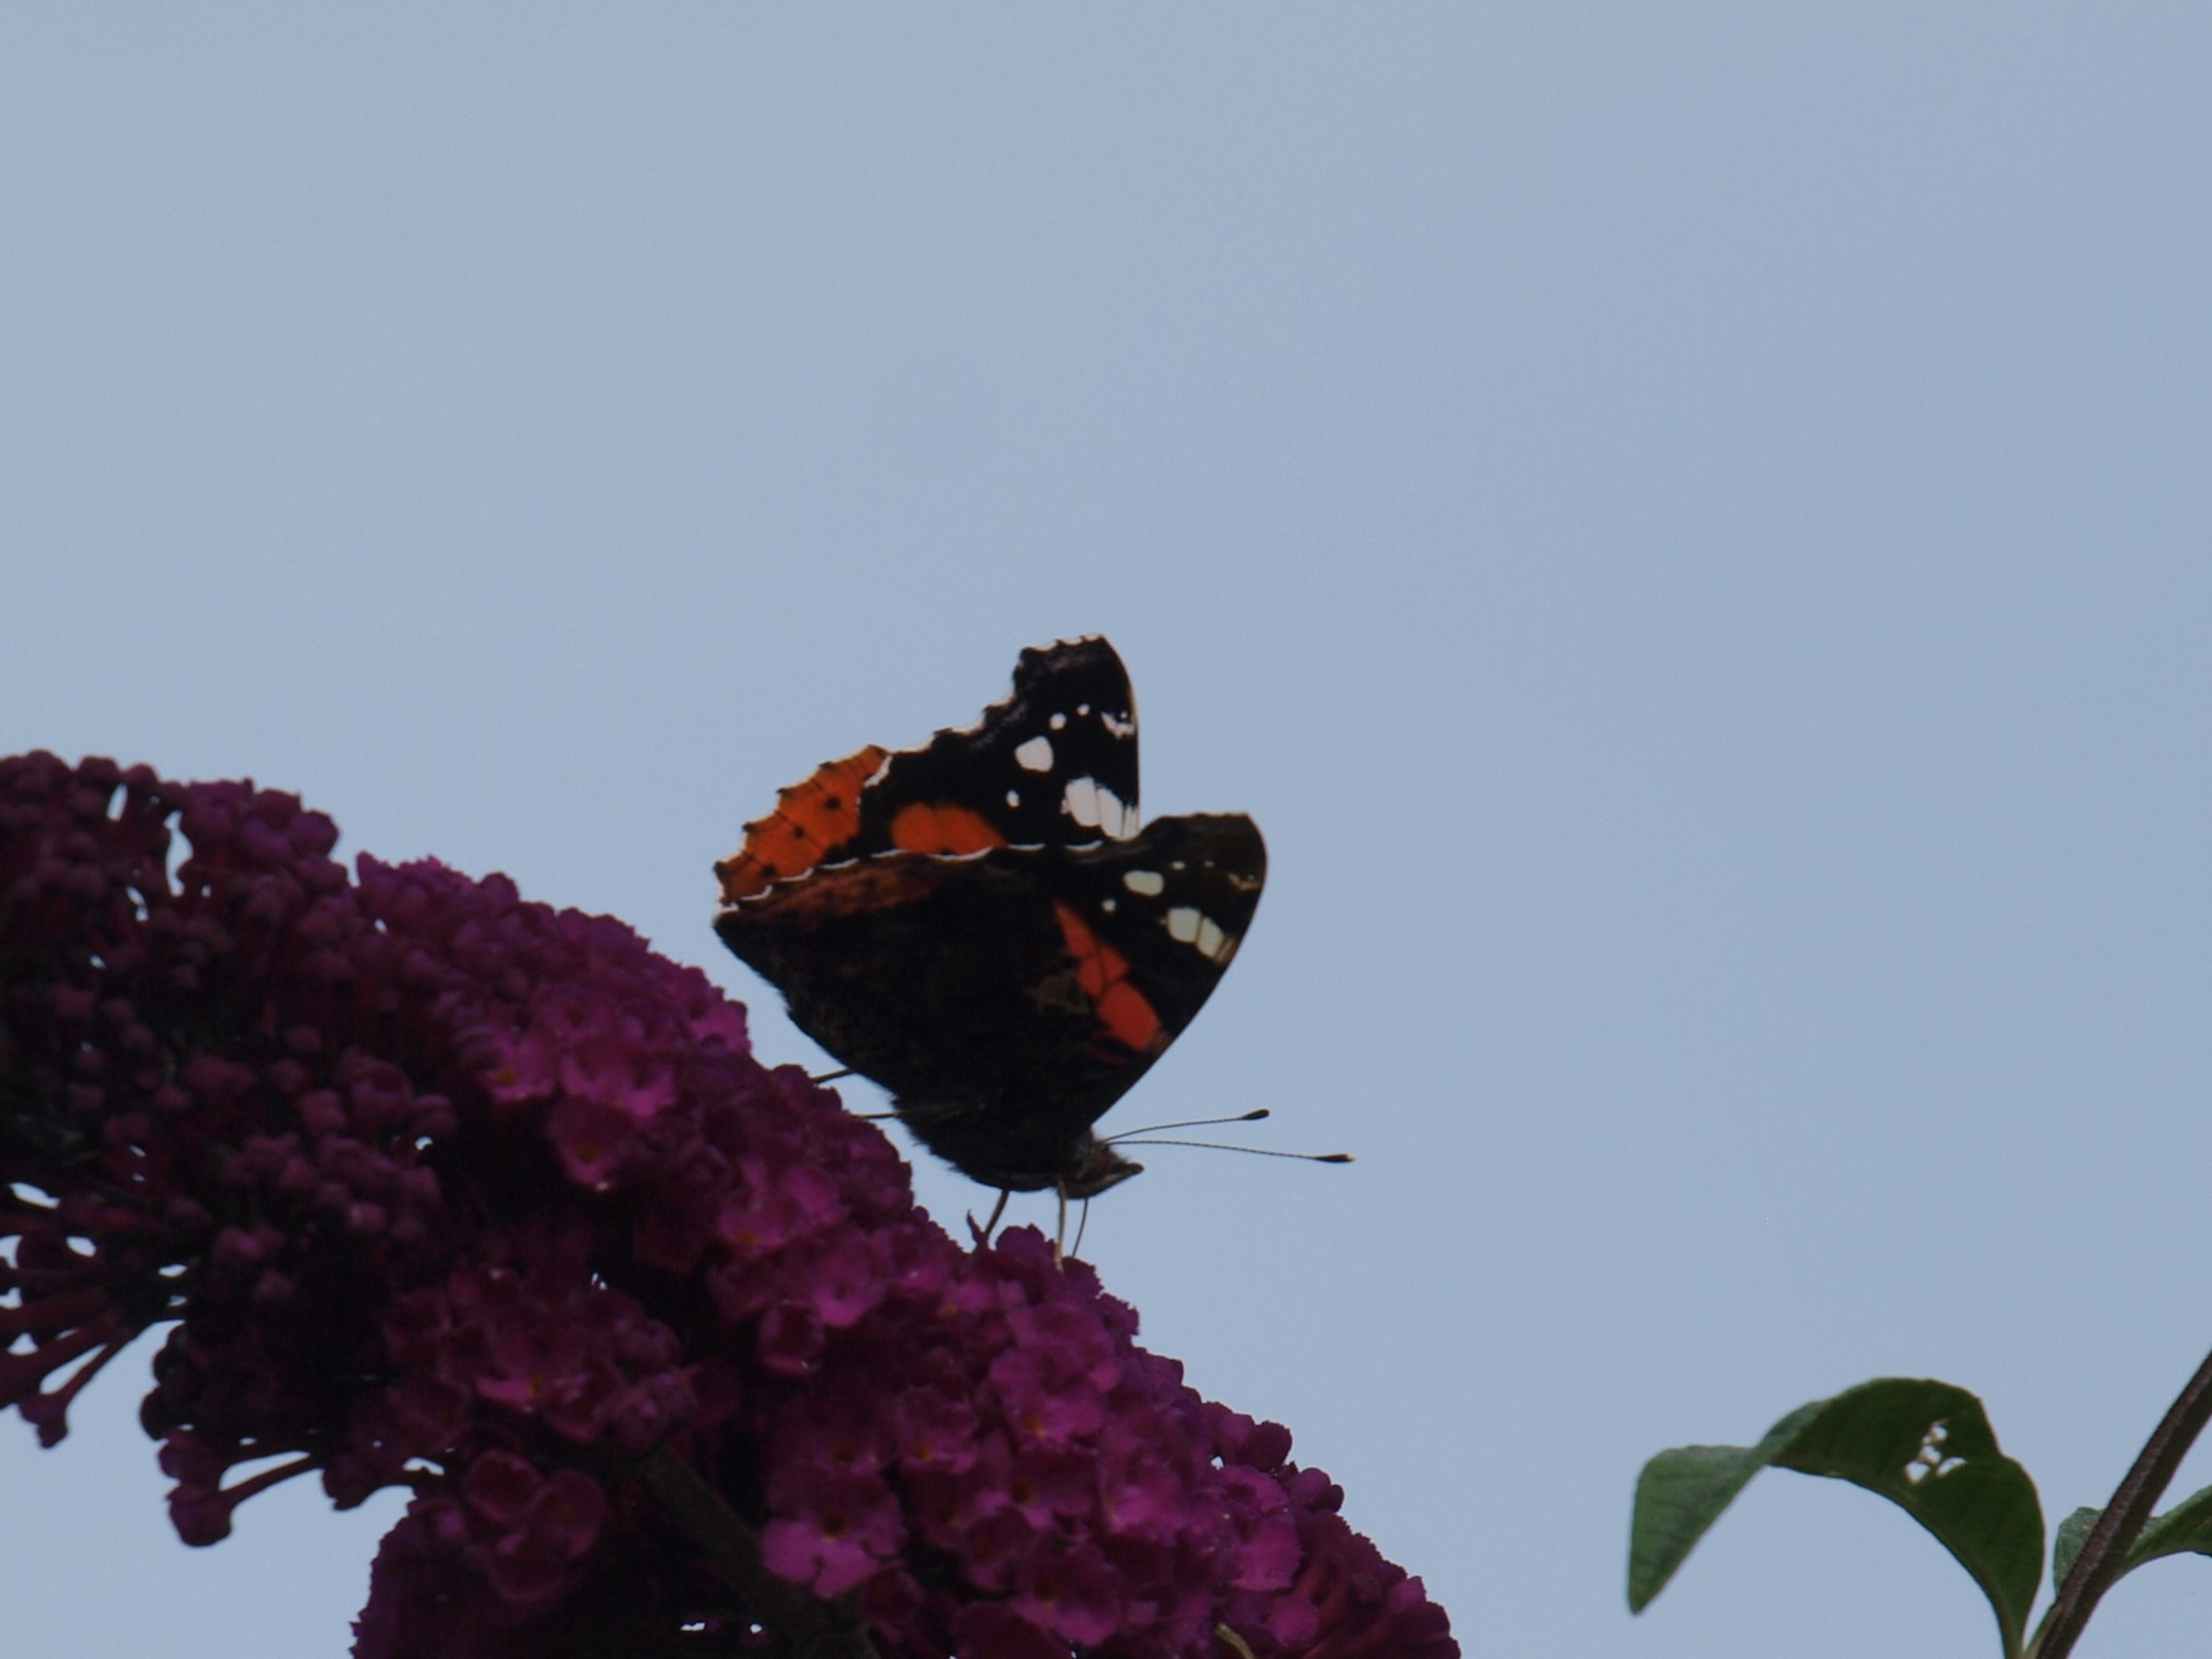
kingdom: Animalia
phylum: Arthropoda
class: Insecta
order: Lepidoptera
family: Nymphalidae
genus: Vanessa
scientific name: Vanessa atalanta
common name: Admiral
